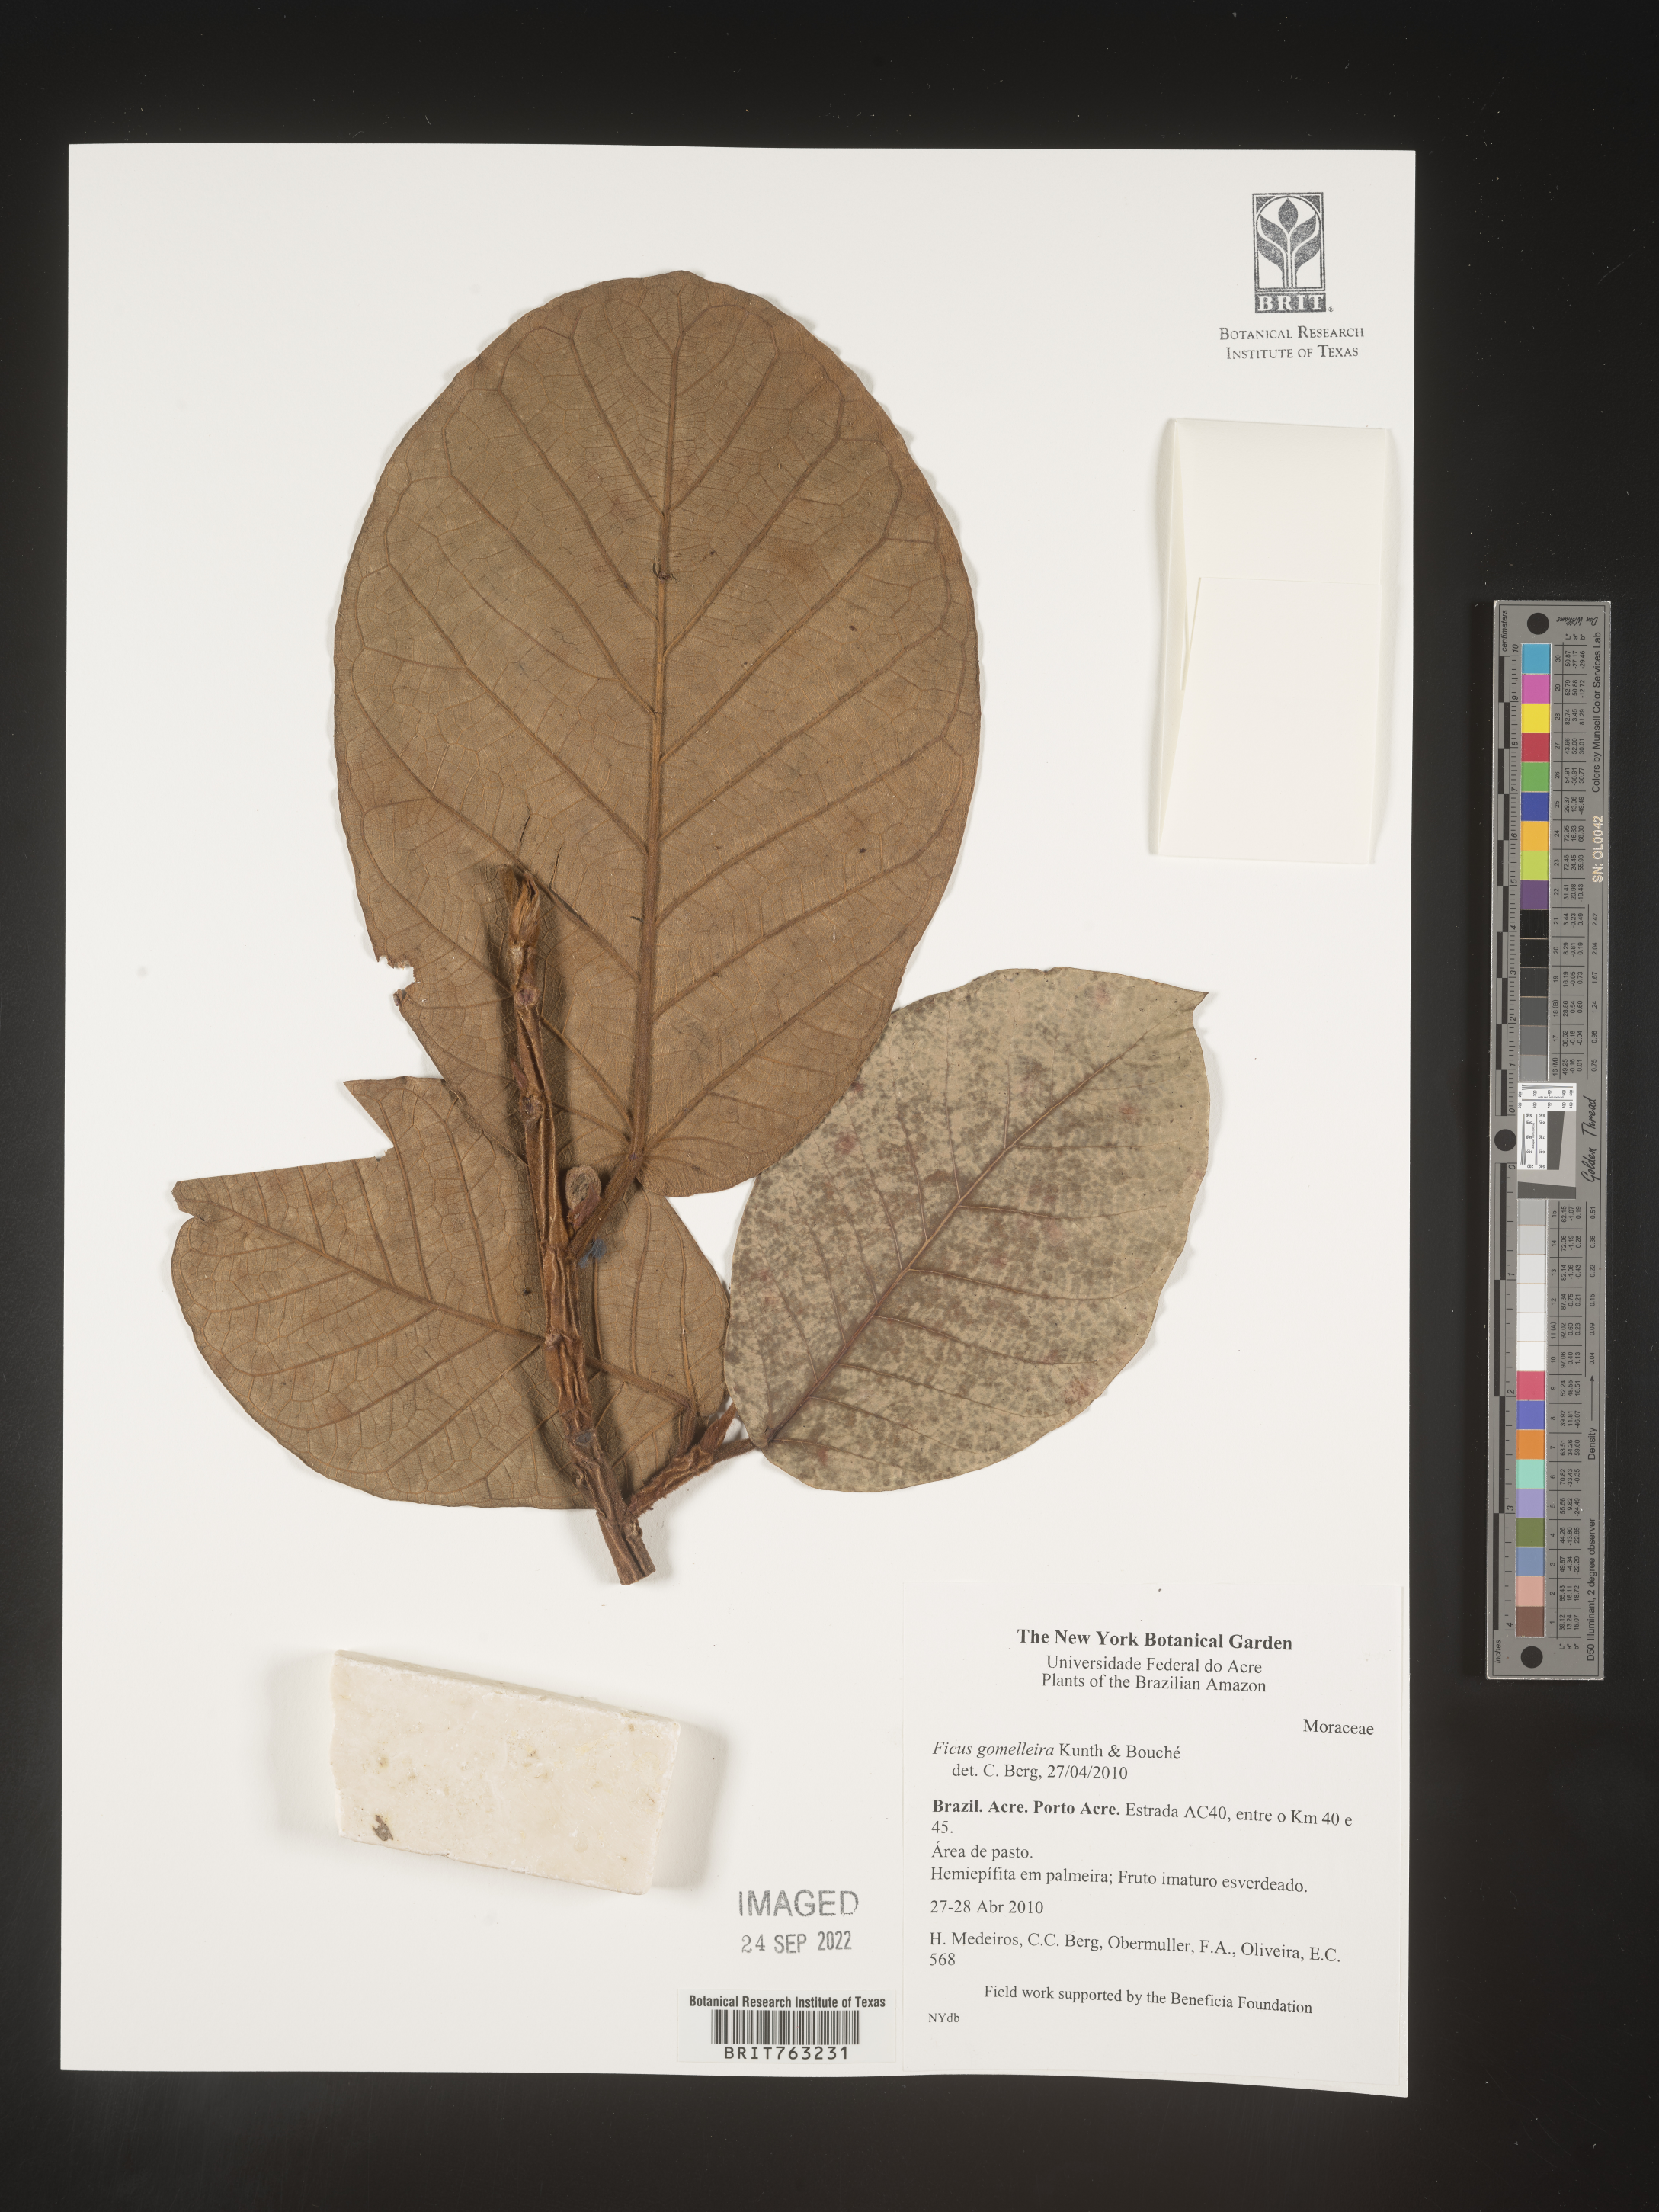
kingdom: Plantae
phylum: Tracheophyta
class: Magnoliopsida
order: Rosales
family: Moraceae
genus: Ficus
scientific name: Ficus gomelleira
